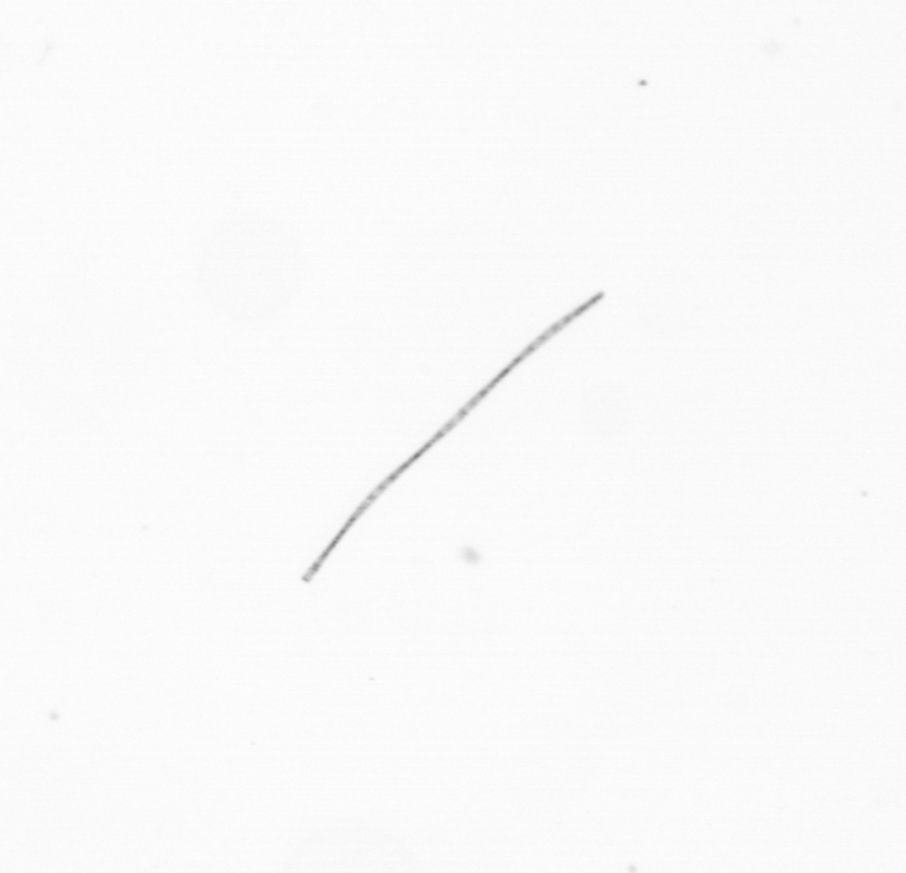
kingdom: Chromista
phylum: Ochrophyta
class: Bacillariophyceae
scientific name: Bacillariophyceae
